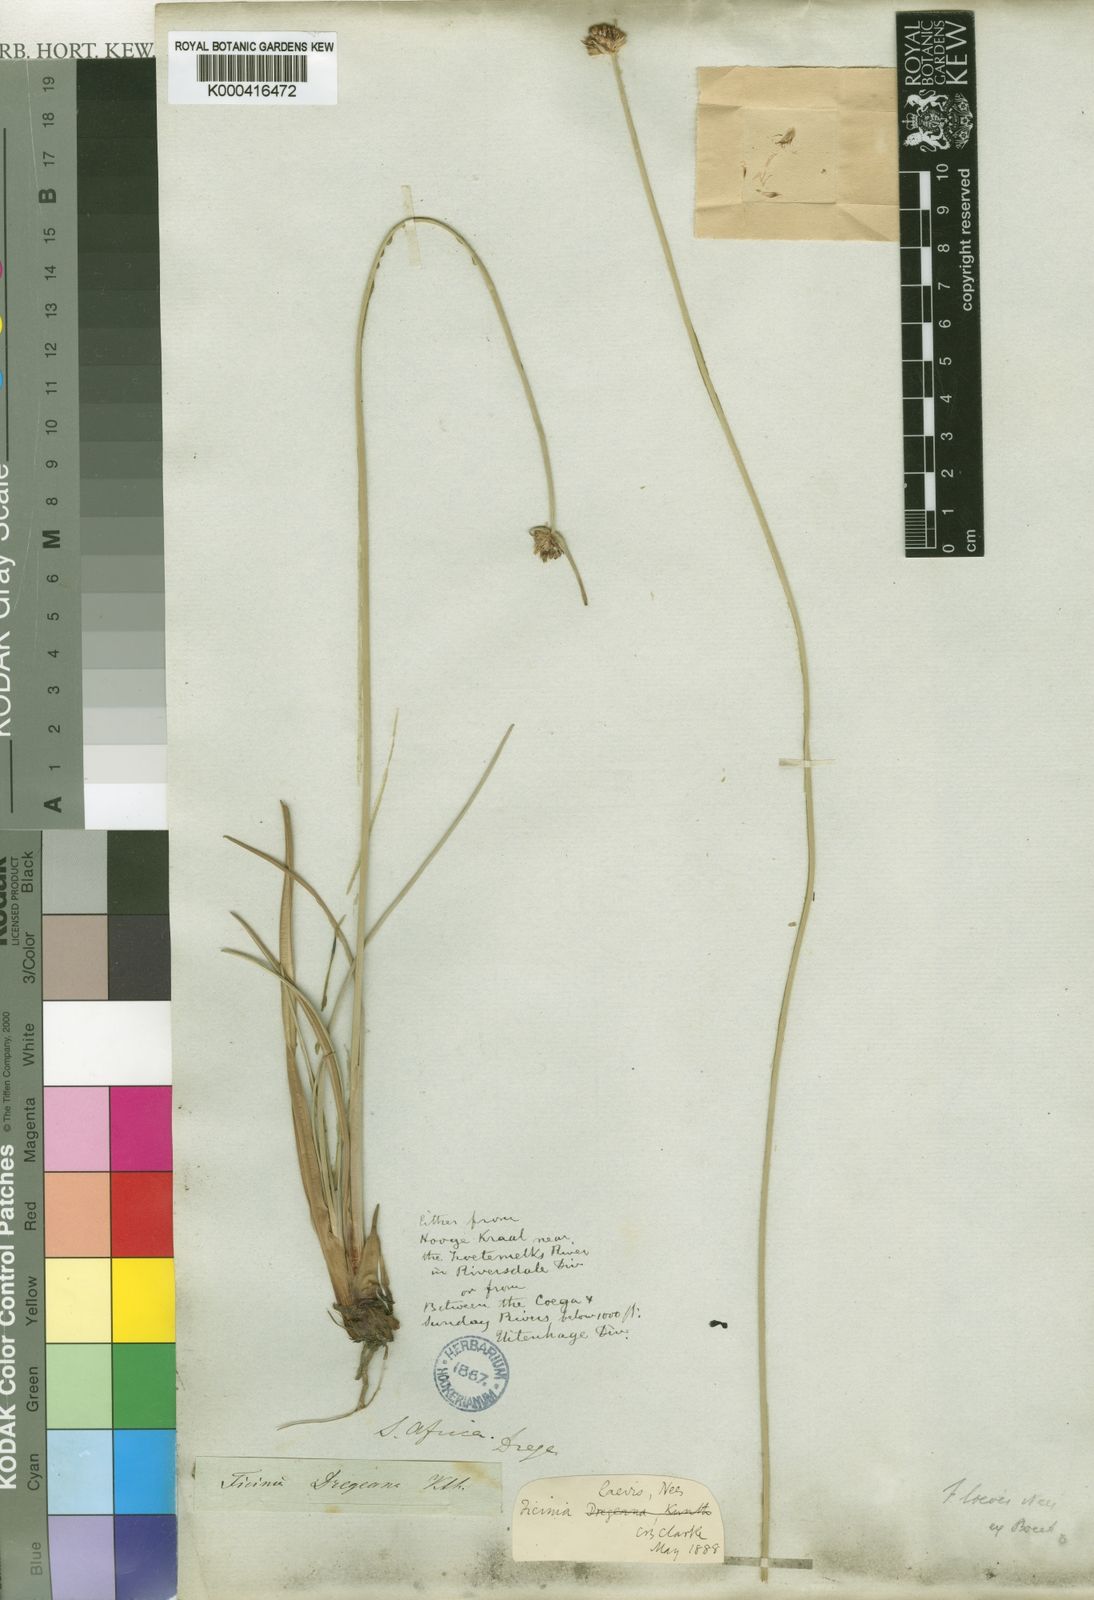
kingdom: Plantae
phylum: Tracheophyta
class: Liliopsida
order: Poales
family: Cyperaceae
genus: Ficinia
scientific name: Ficinia laevis
